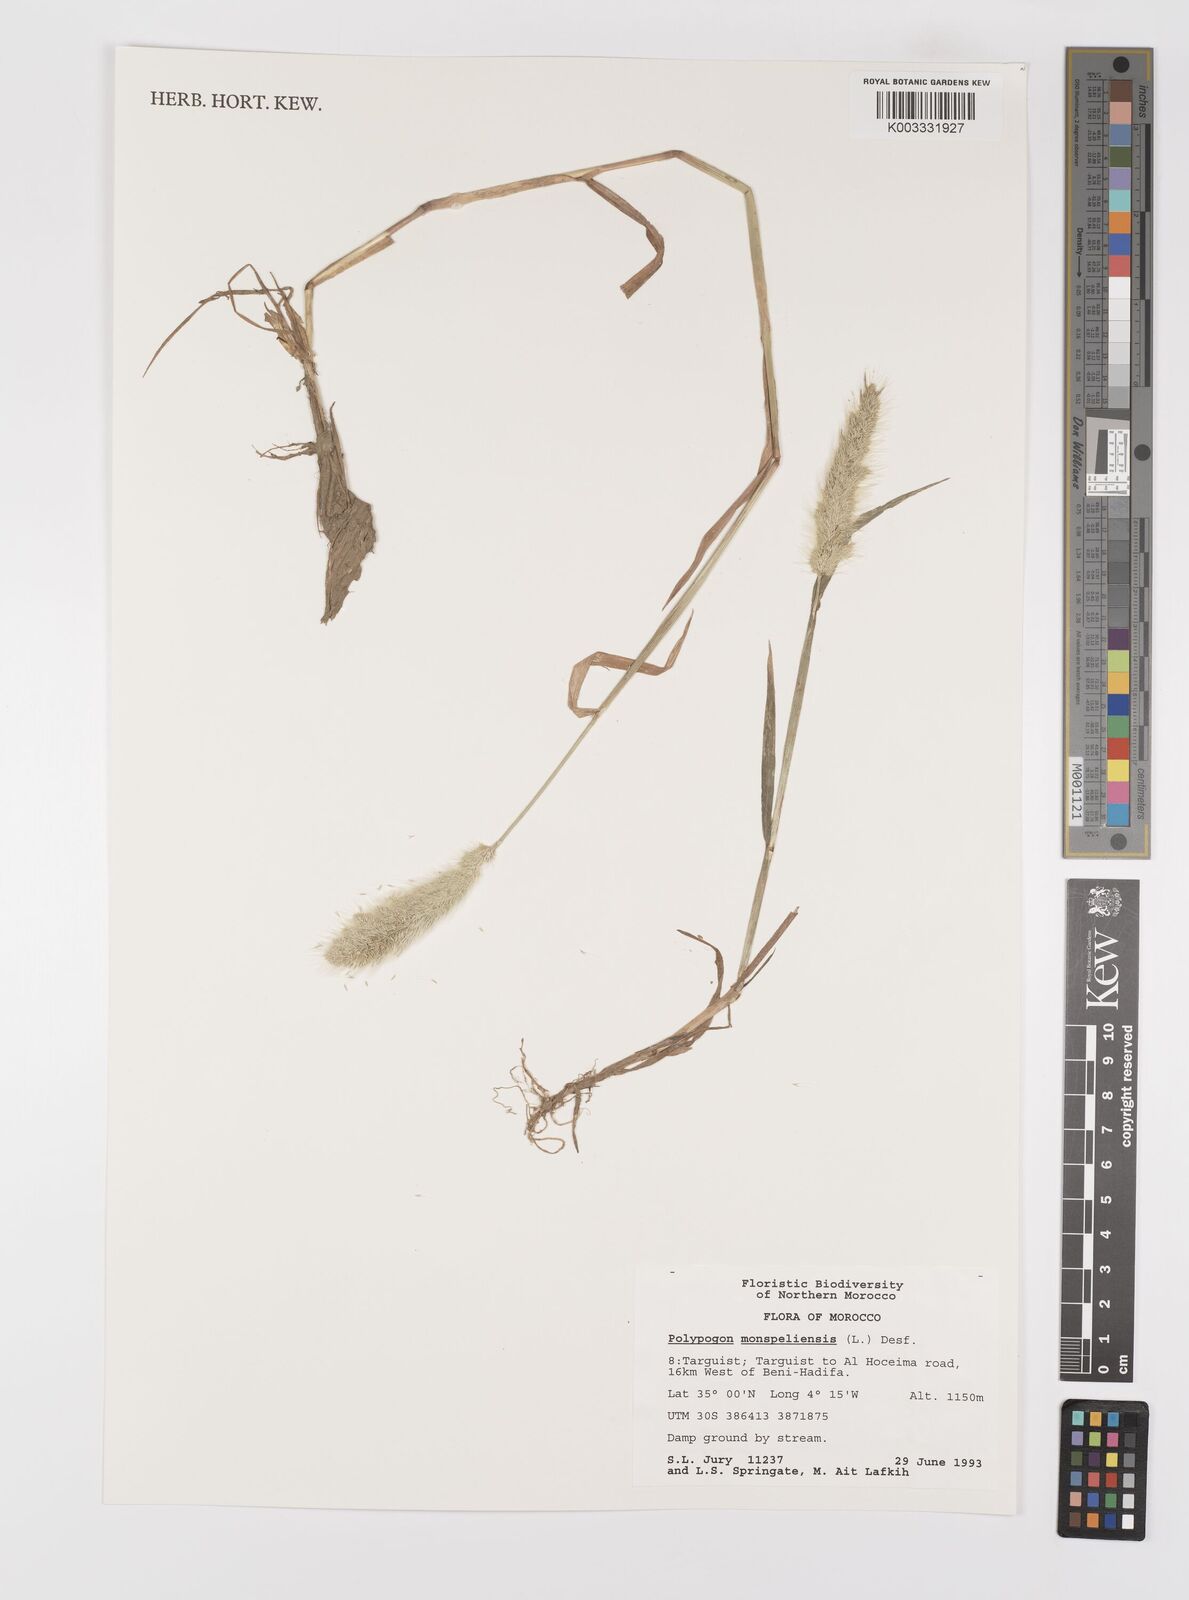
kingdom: Plantae
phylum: Tracheophyta
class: Liliopsida
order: Poales
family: Poaceae
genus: Polypogon
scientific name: Polypogon monspeliensis
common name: Annual rabbitsfoot grass
